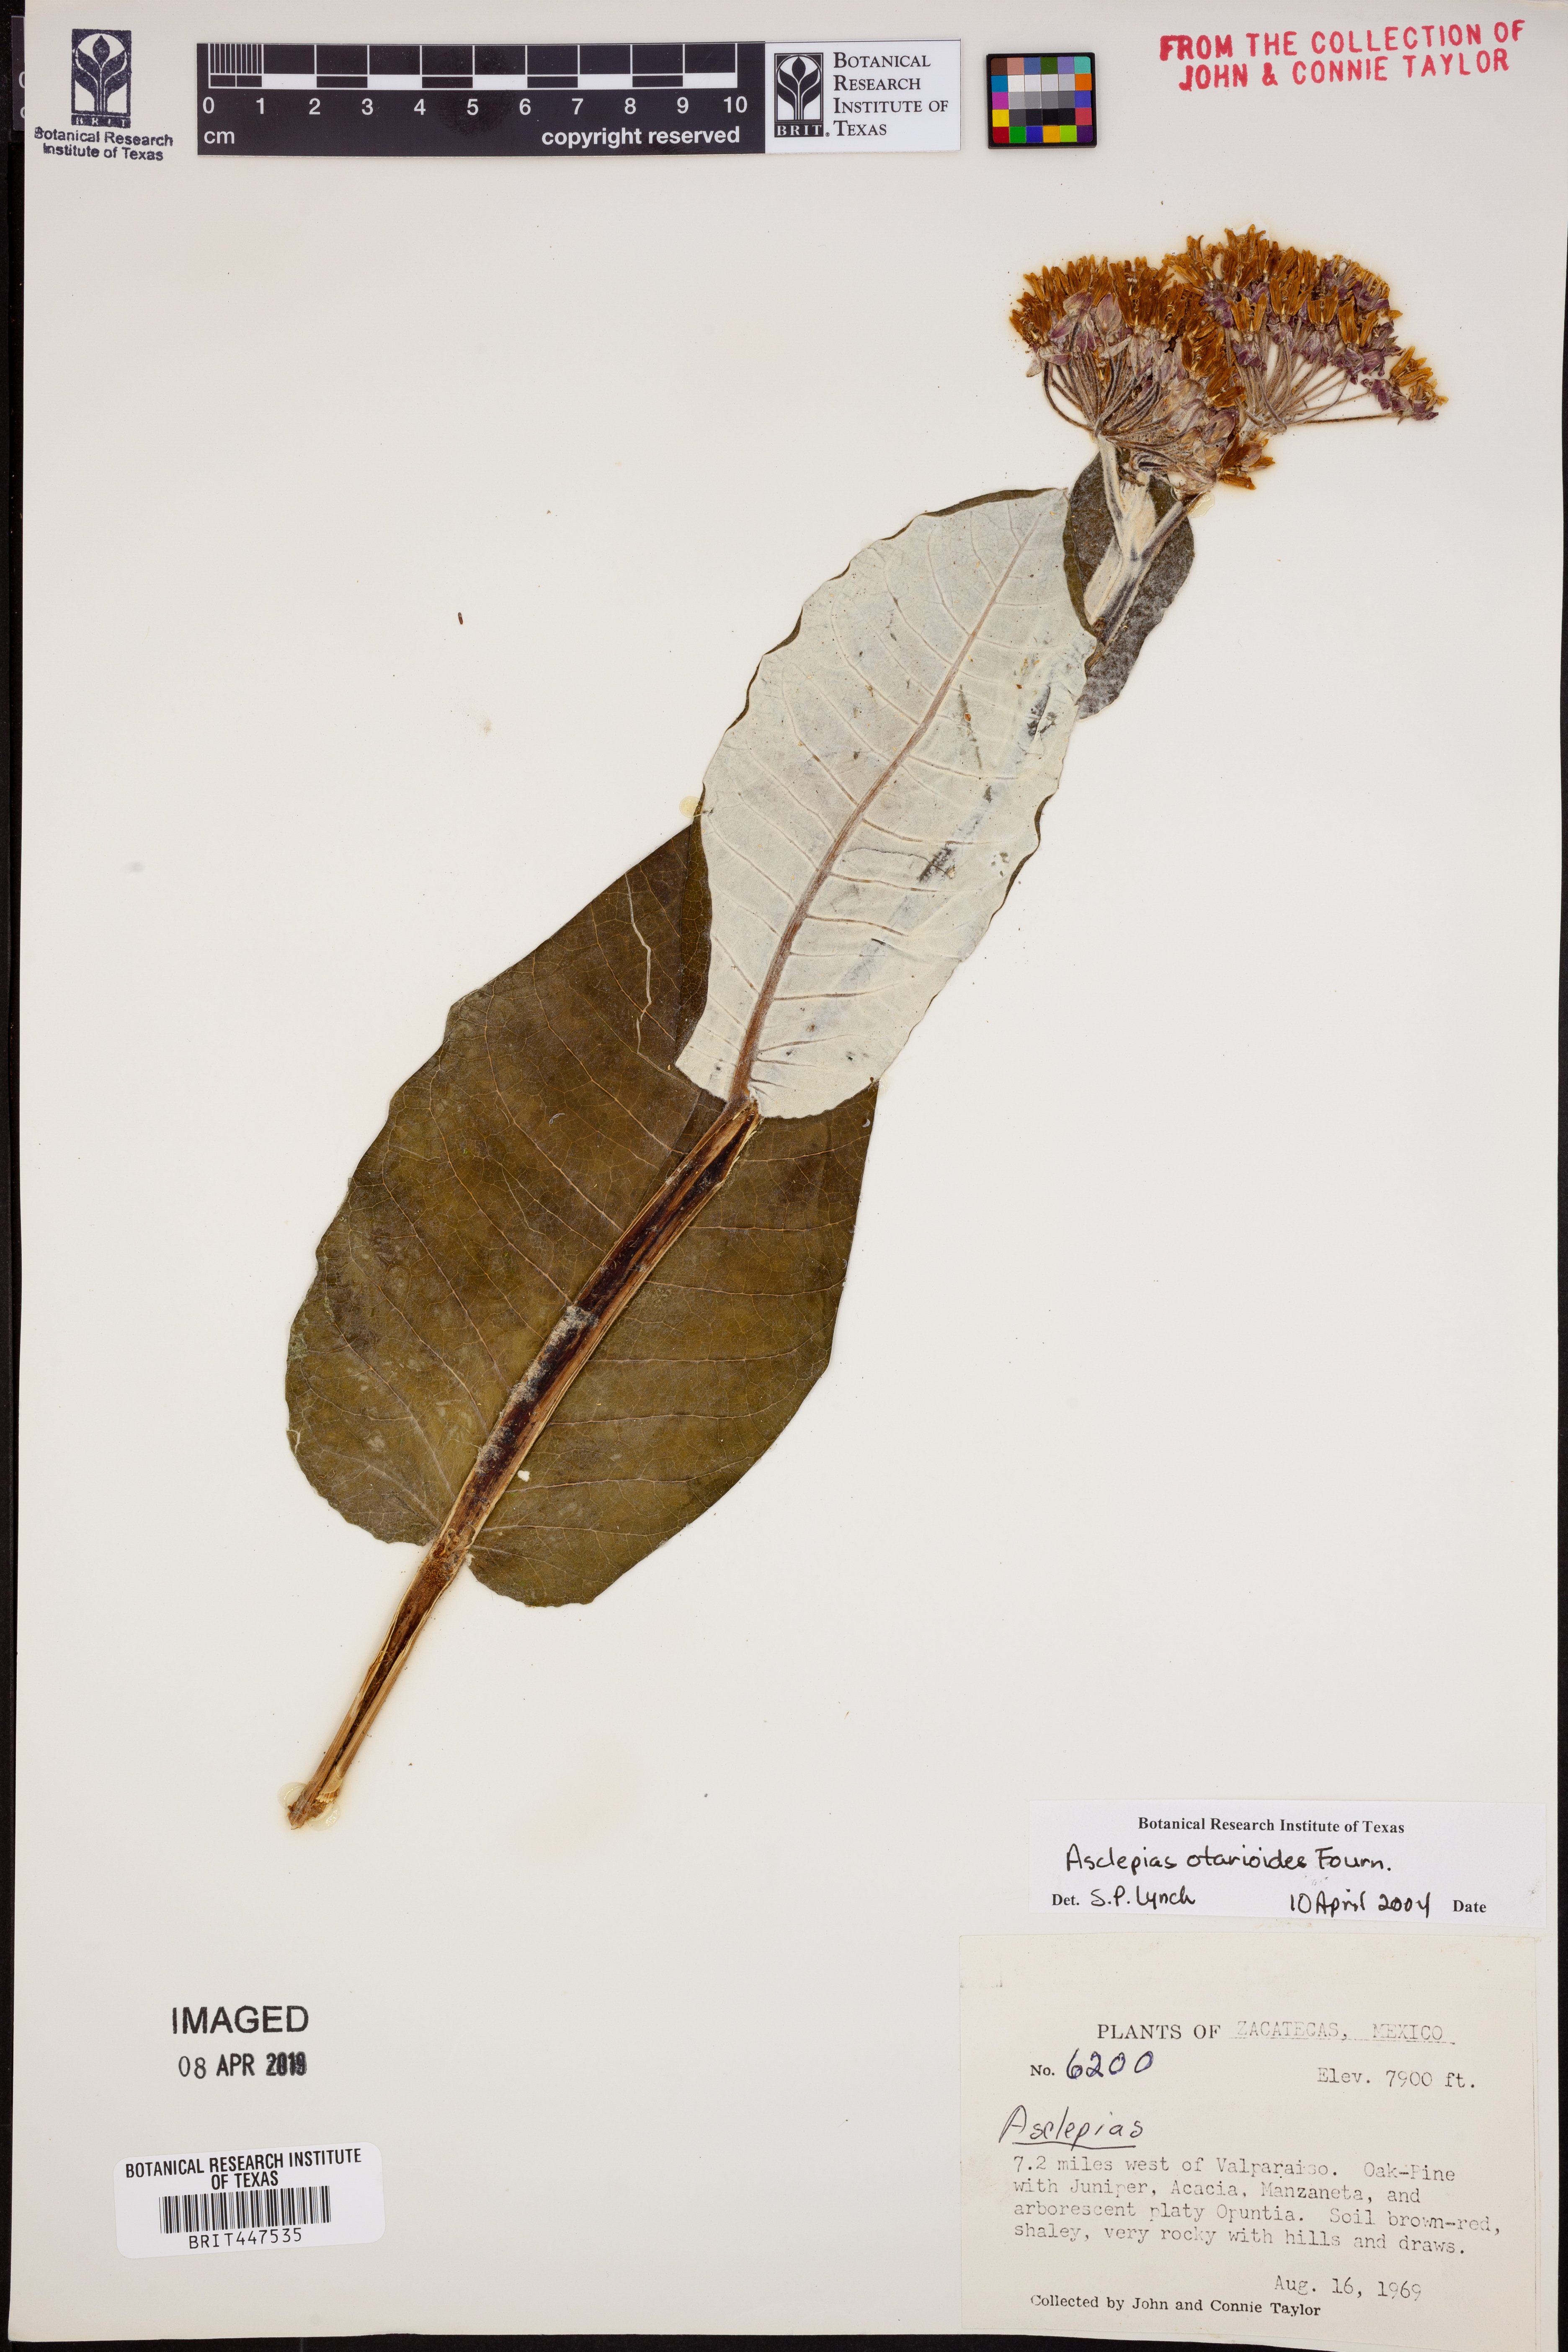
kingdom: Plantae
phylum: Tracheophyta
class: Magnoliopsida
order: Gentianales
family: Apocynaceae
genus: Asclepias
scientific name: Asclepias otarioides
